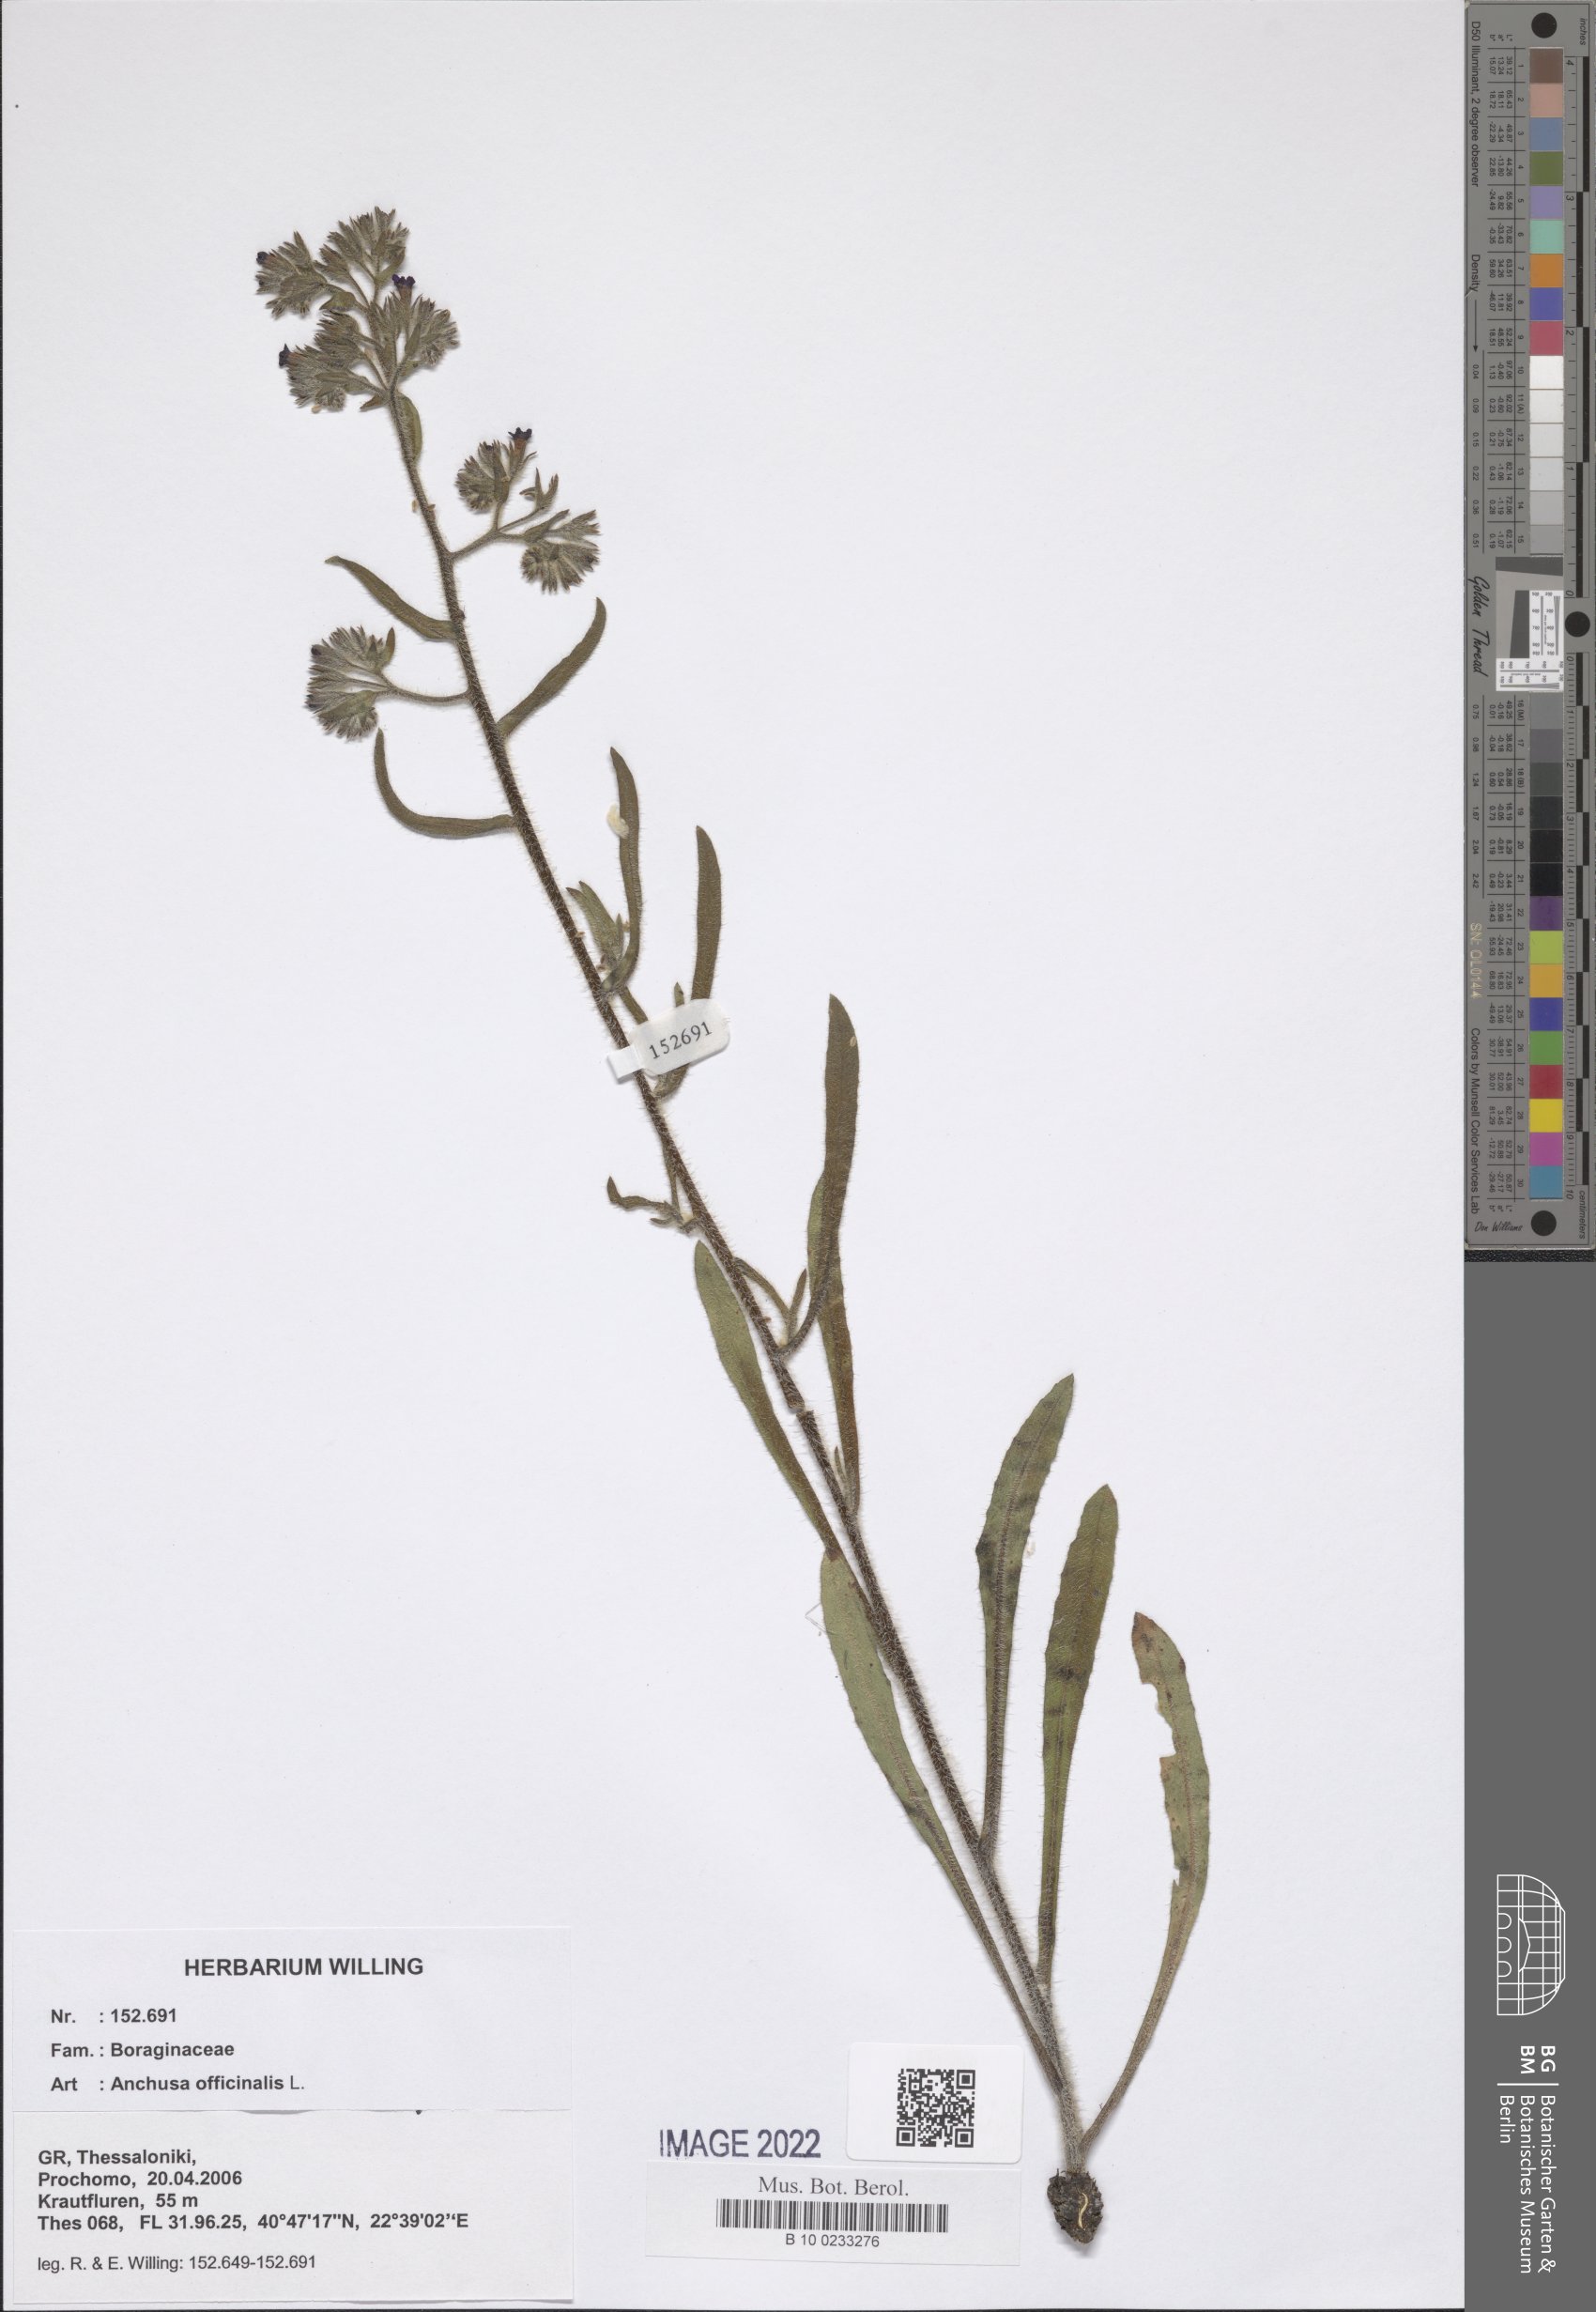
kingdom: Plantae
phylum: Tracheophyta
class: Magnoliopsida
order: Boraginales
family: Boraginaceae
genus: Anchusa
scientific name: Anchusa officinalis
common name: Alkanet
